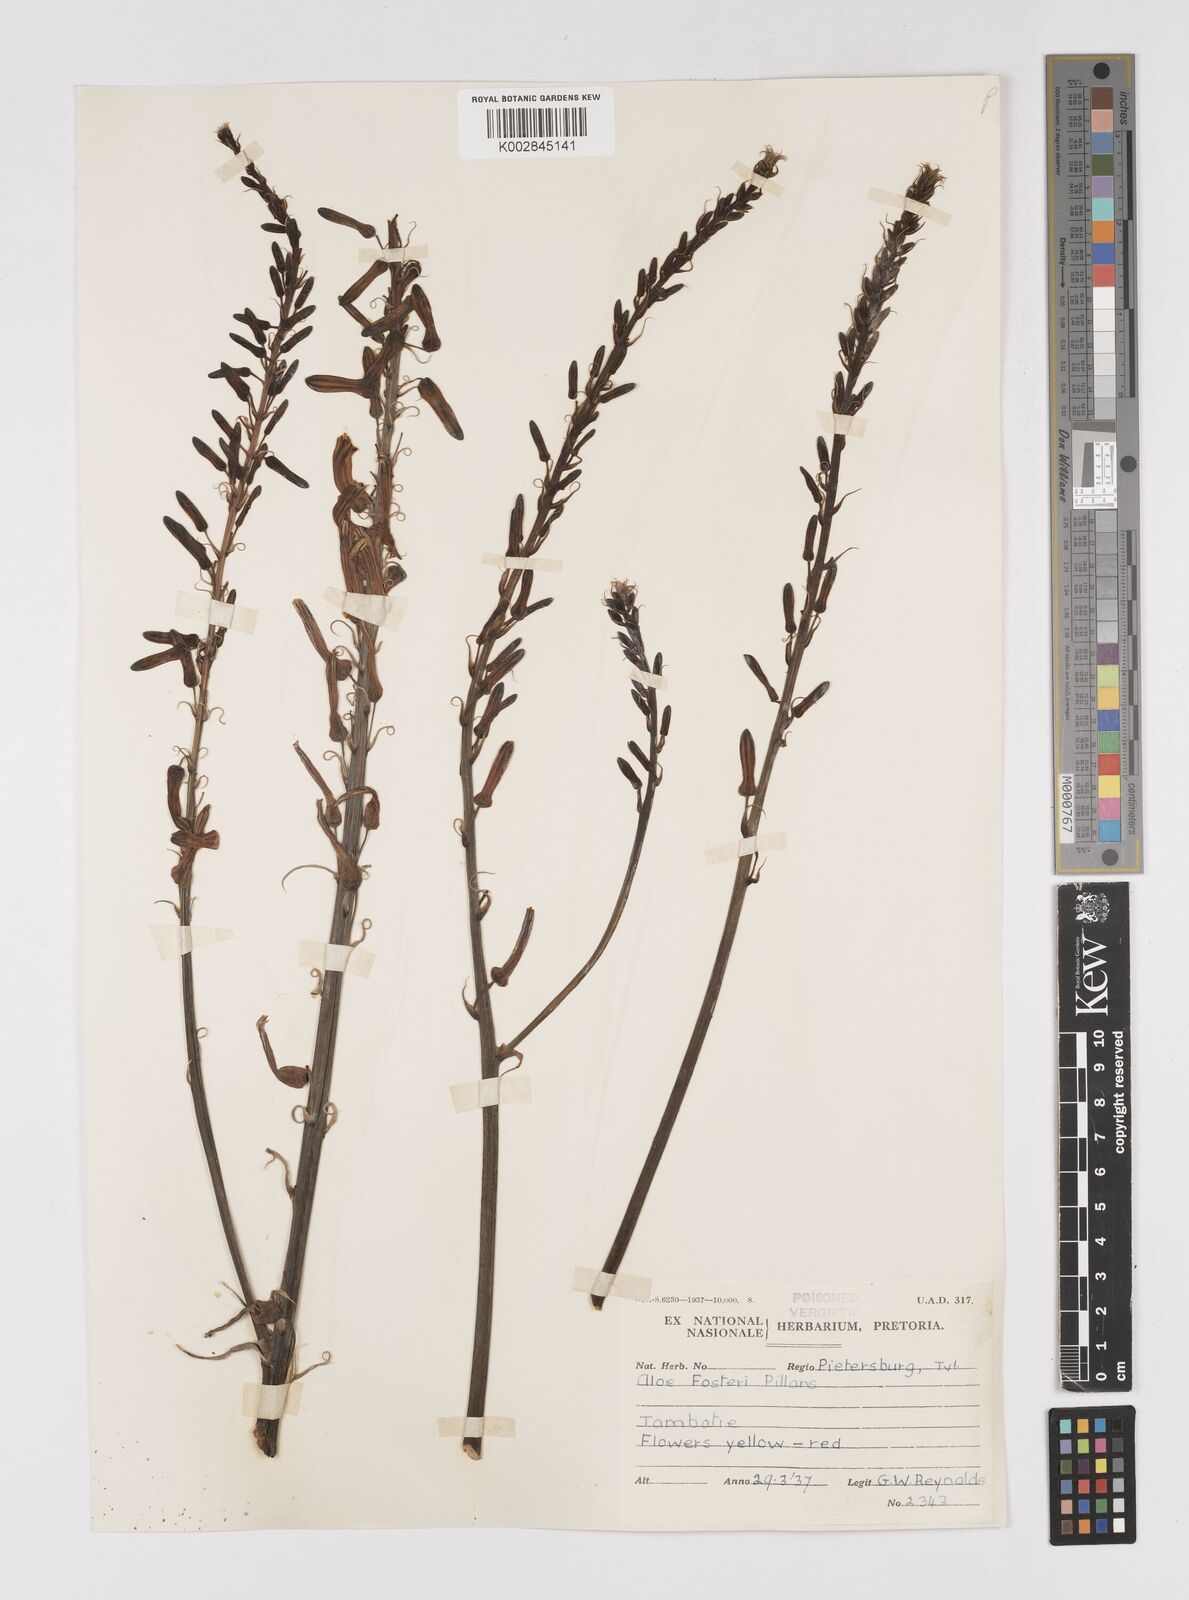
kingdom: Plantae
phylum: Tracheophyta
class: Liliopsida
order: Asparagales
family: Asphodelaceae
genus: Aloe
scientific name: Aloe fosteri
